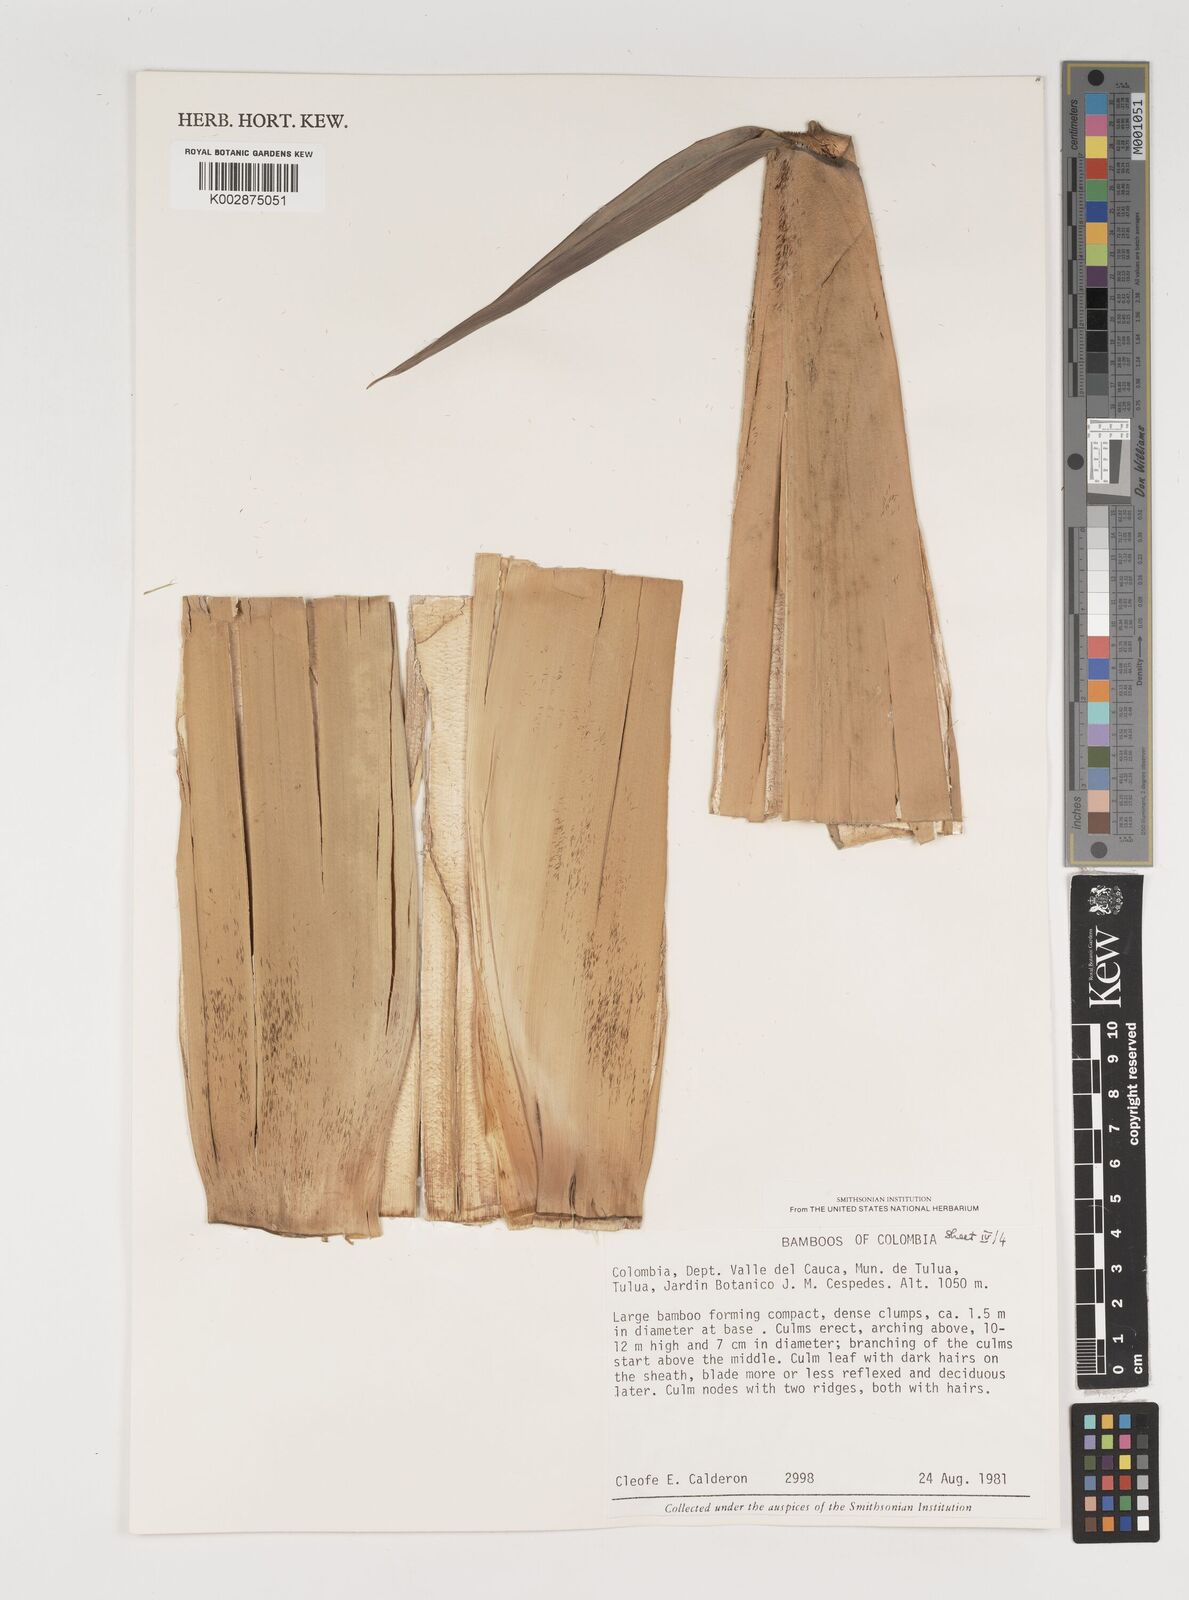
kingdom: Plantae
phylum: Tracheophyta
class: Liliopsida
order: Poales
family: Poaceae
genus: Gigantochloa
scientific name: Gigantochloa
